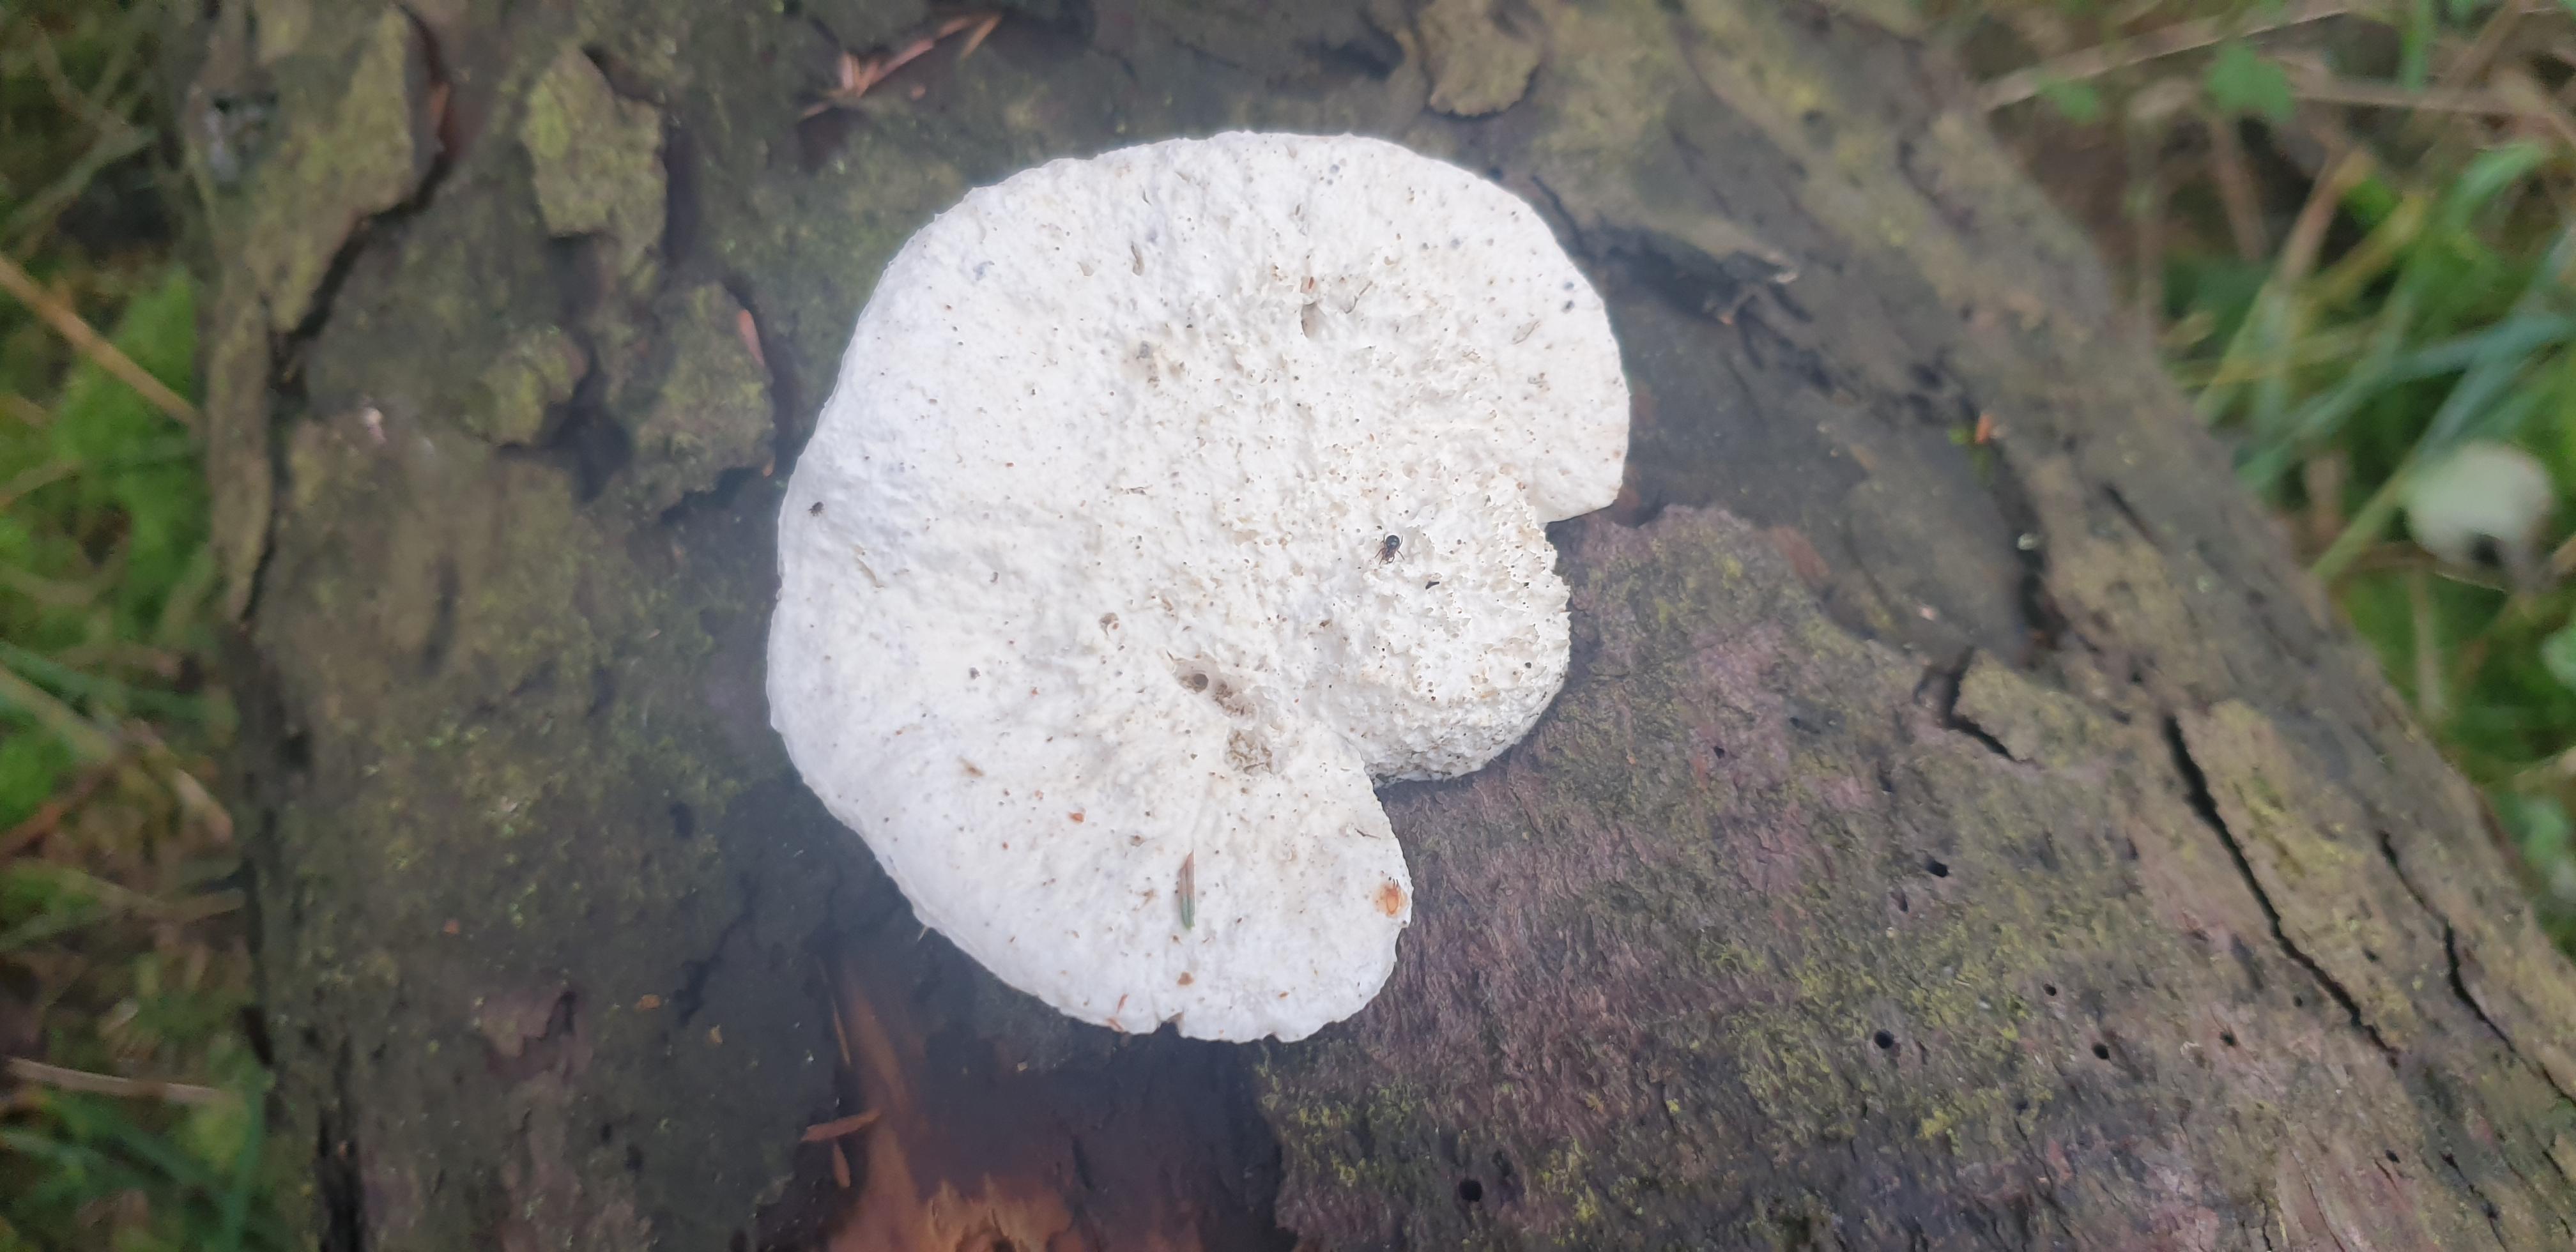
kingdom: Fungi
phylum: Basidiomycota
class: Agaricomycetes
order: Polyporales
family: Incrustoporiaceae
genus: Tyromyces
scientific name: Tyromyces lacteus
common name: mælkehvid kødporesvamp
